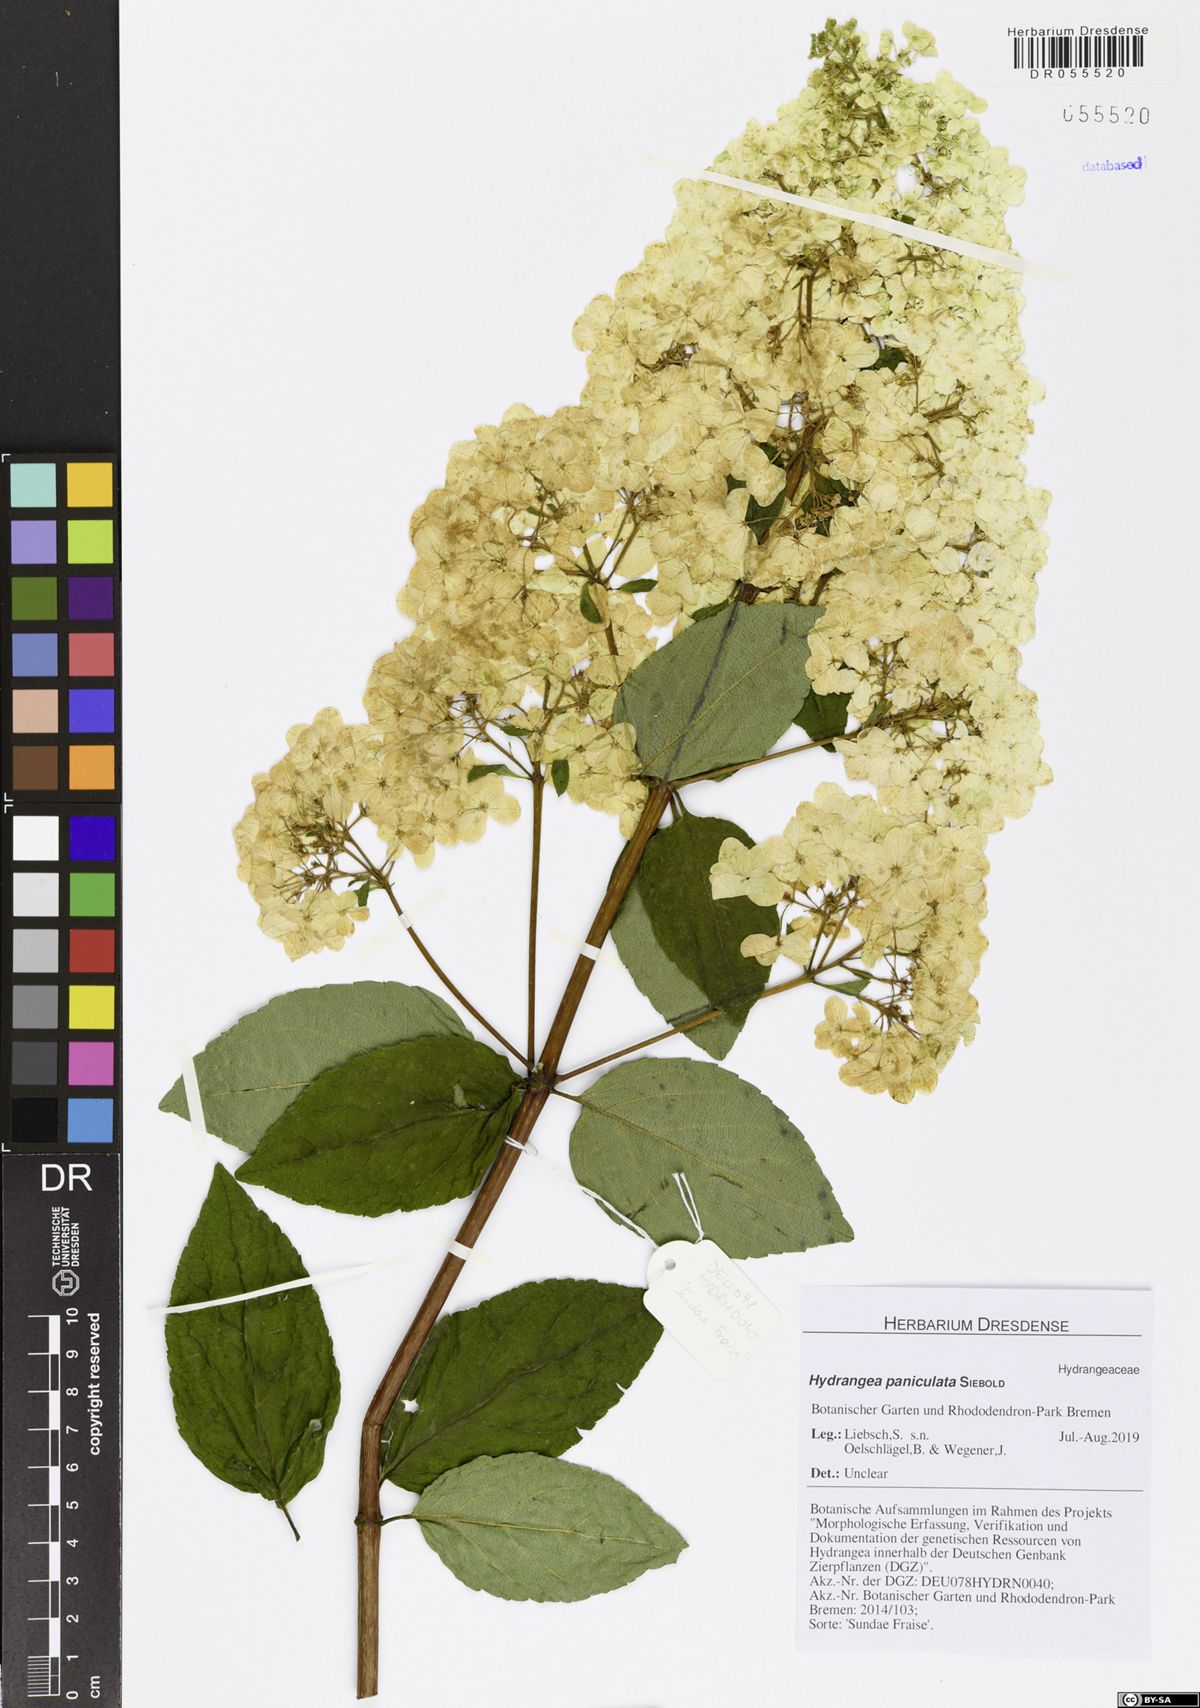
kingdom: Plantae
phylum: Tracheophyta
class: Magnoliopsida
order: Cornales
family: Hydrangeaceae
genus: Hydrangea
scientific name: Hydrangea paniculata
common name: Panicled hydrangea
